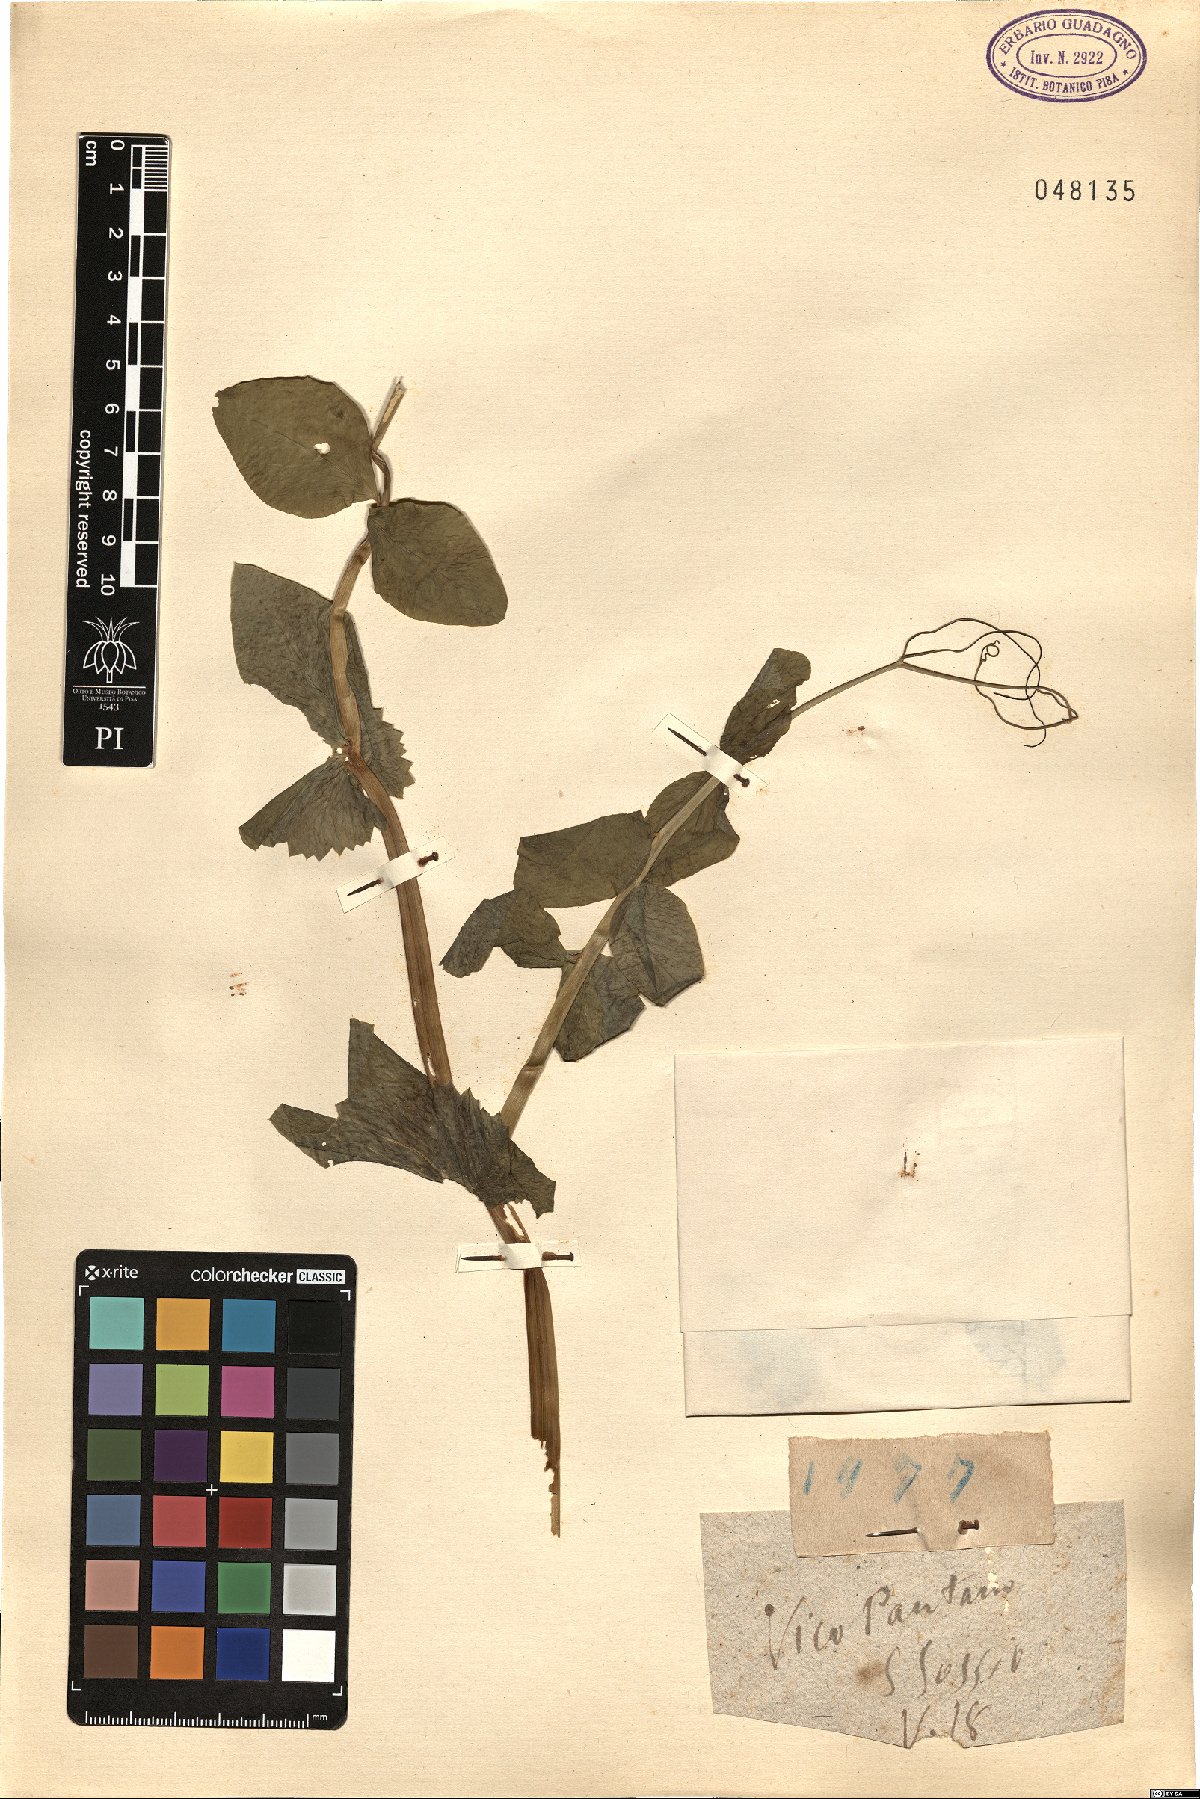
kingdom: Animalia
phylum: Mollusca
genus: Pisum
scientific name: Pisum
